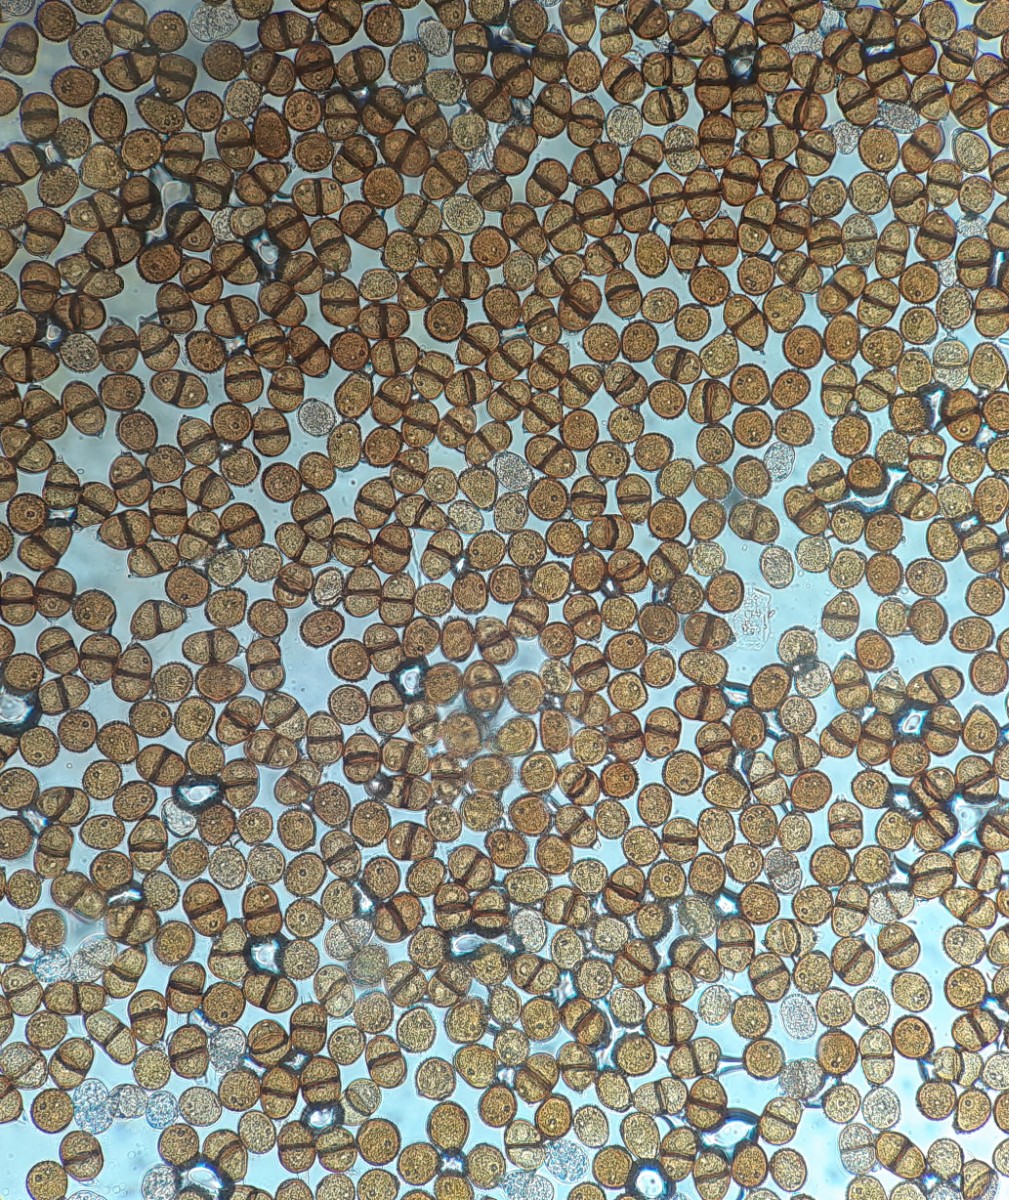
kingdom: Fungi
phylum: Basidiomycota
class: Pucciniomycetes
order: Pucciniales
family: Pucciniaceae
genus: Puccinia
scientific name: Puccinia hieracii
